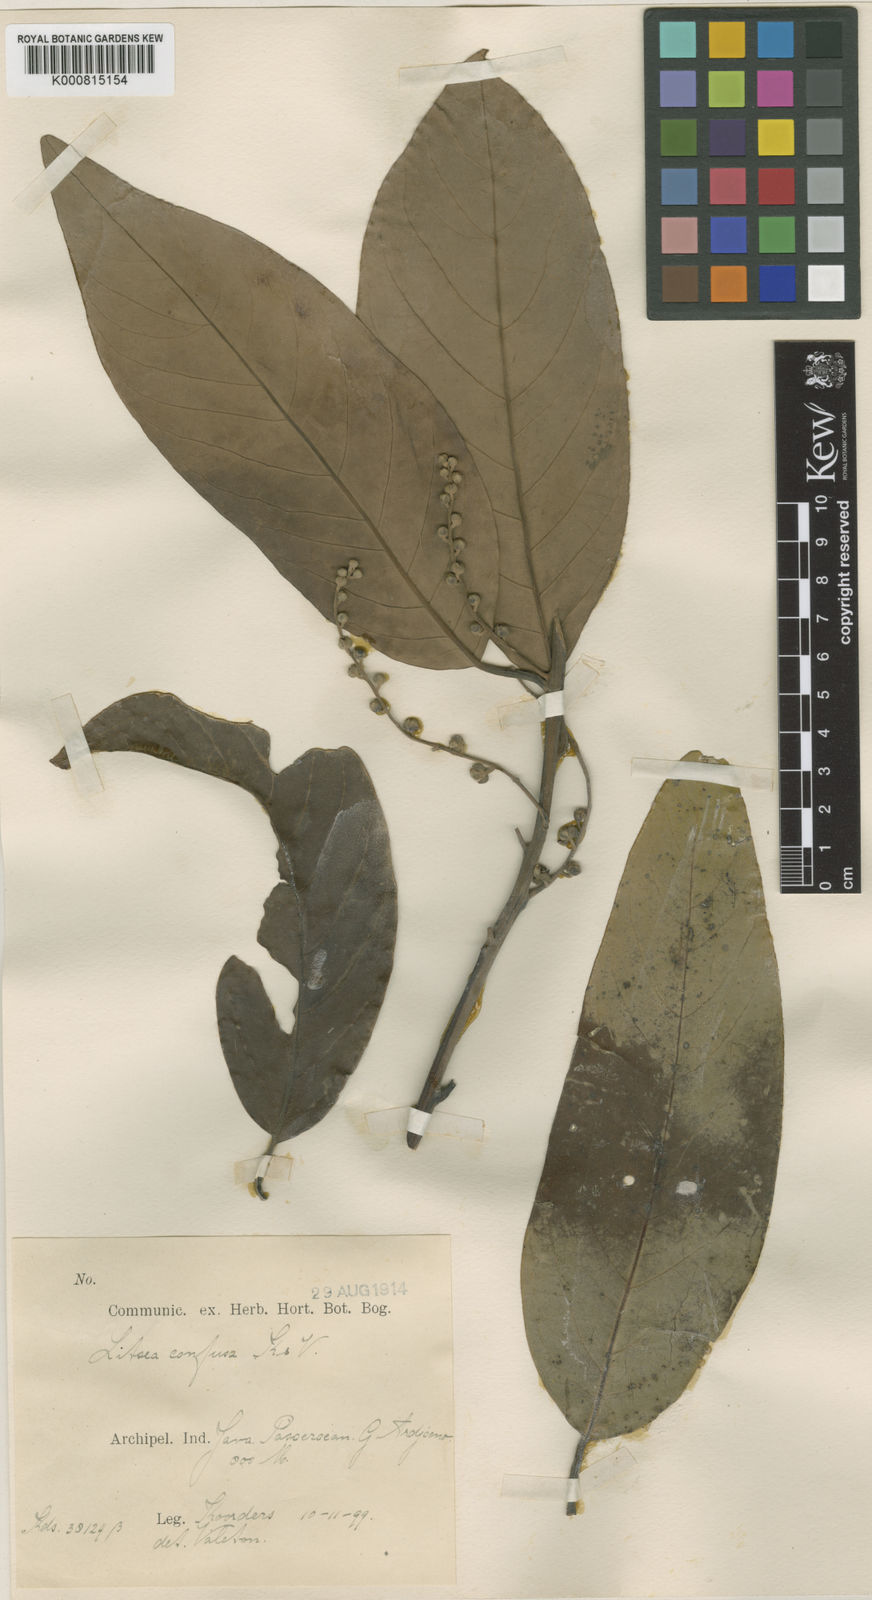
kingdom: Plantae
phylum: Tracheophyta
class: Magnoliopsida
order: Laurales
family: Lauraceae
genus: Litsea
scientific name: Litsea confusa
